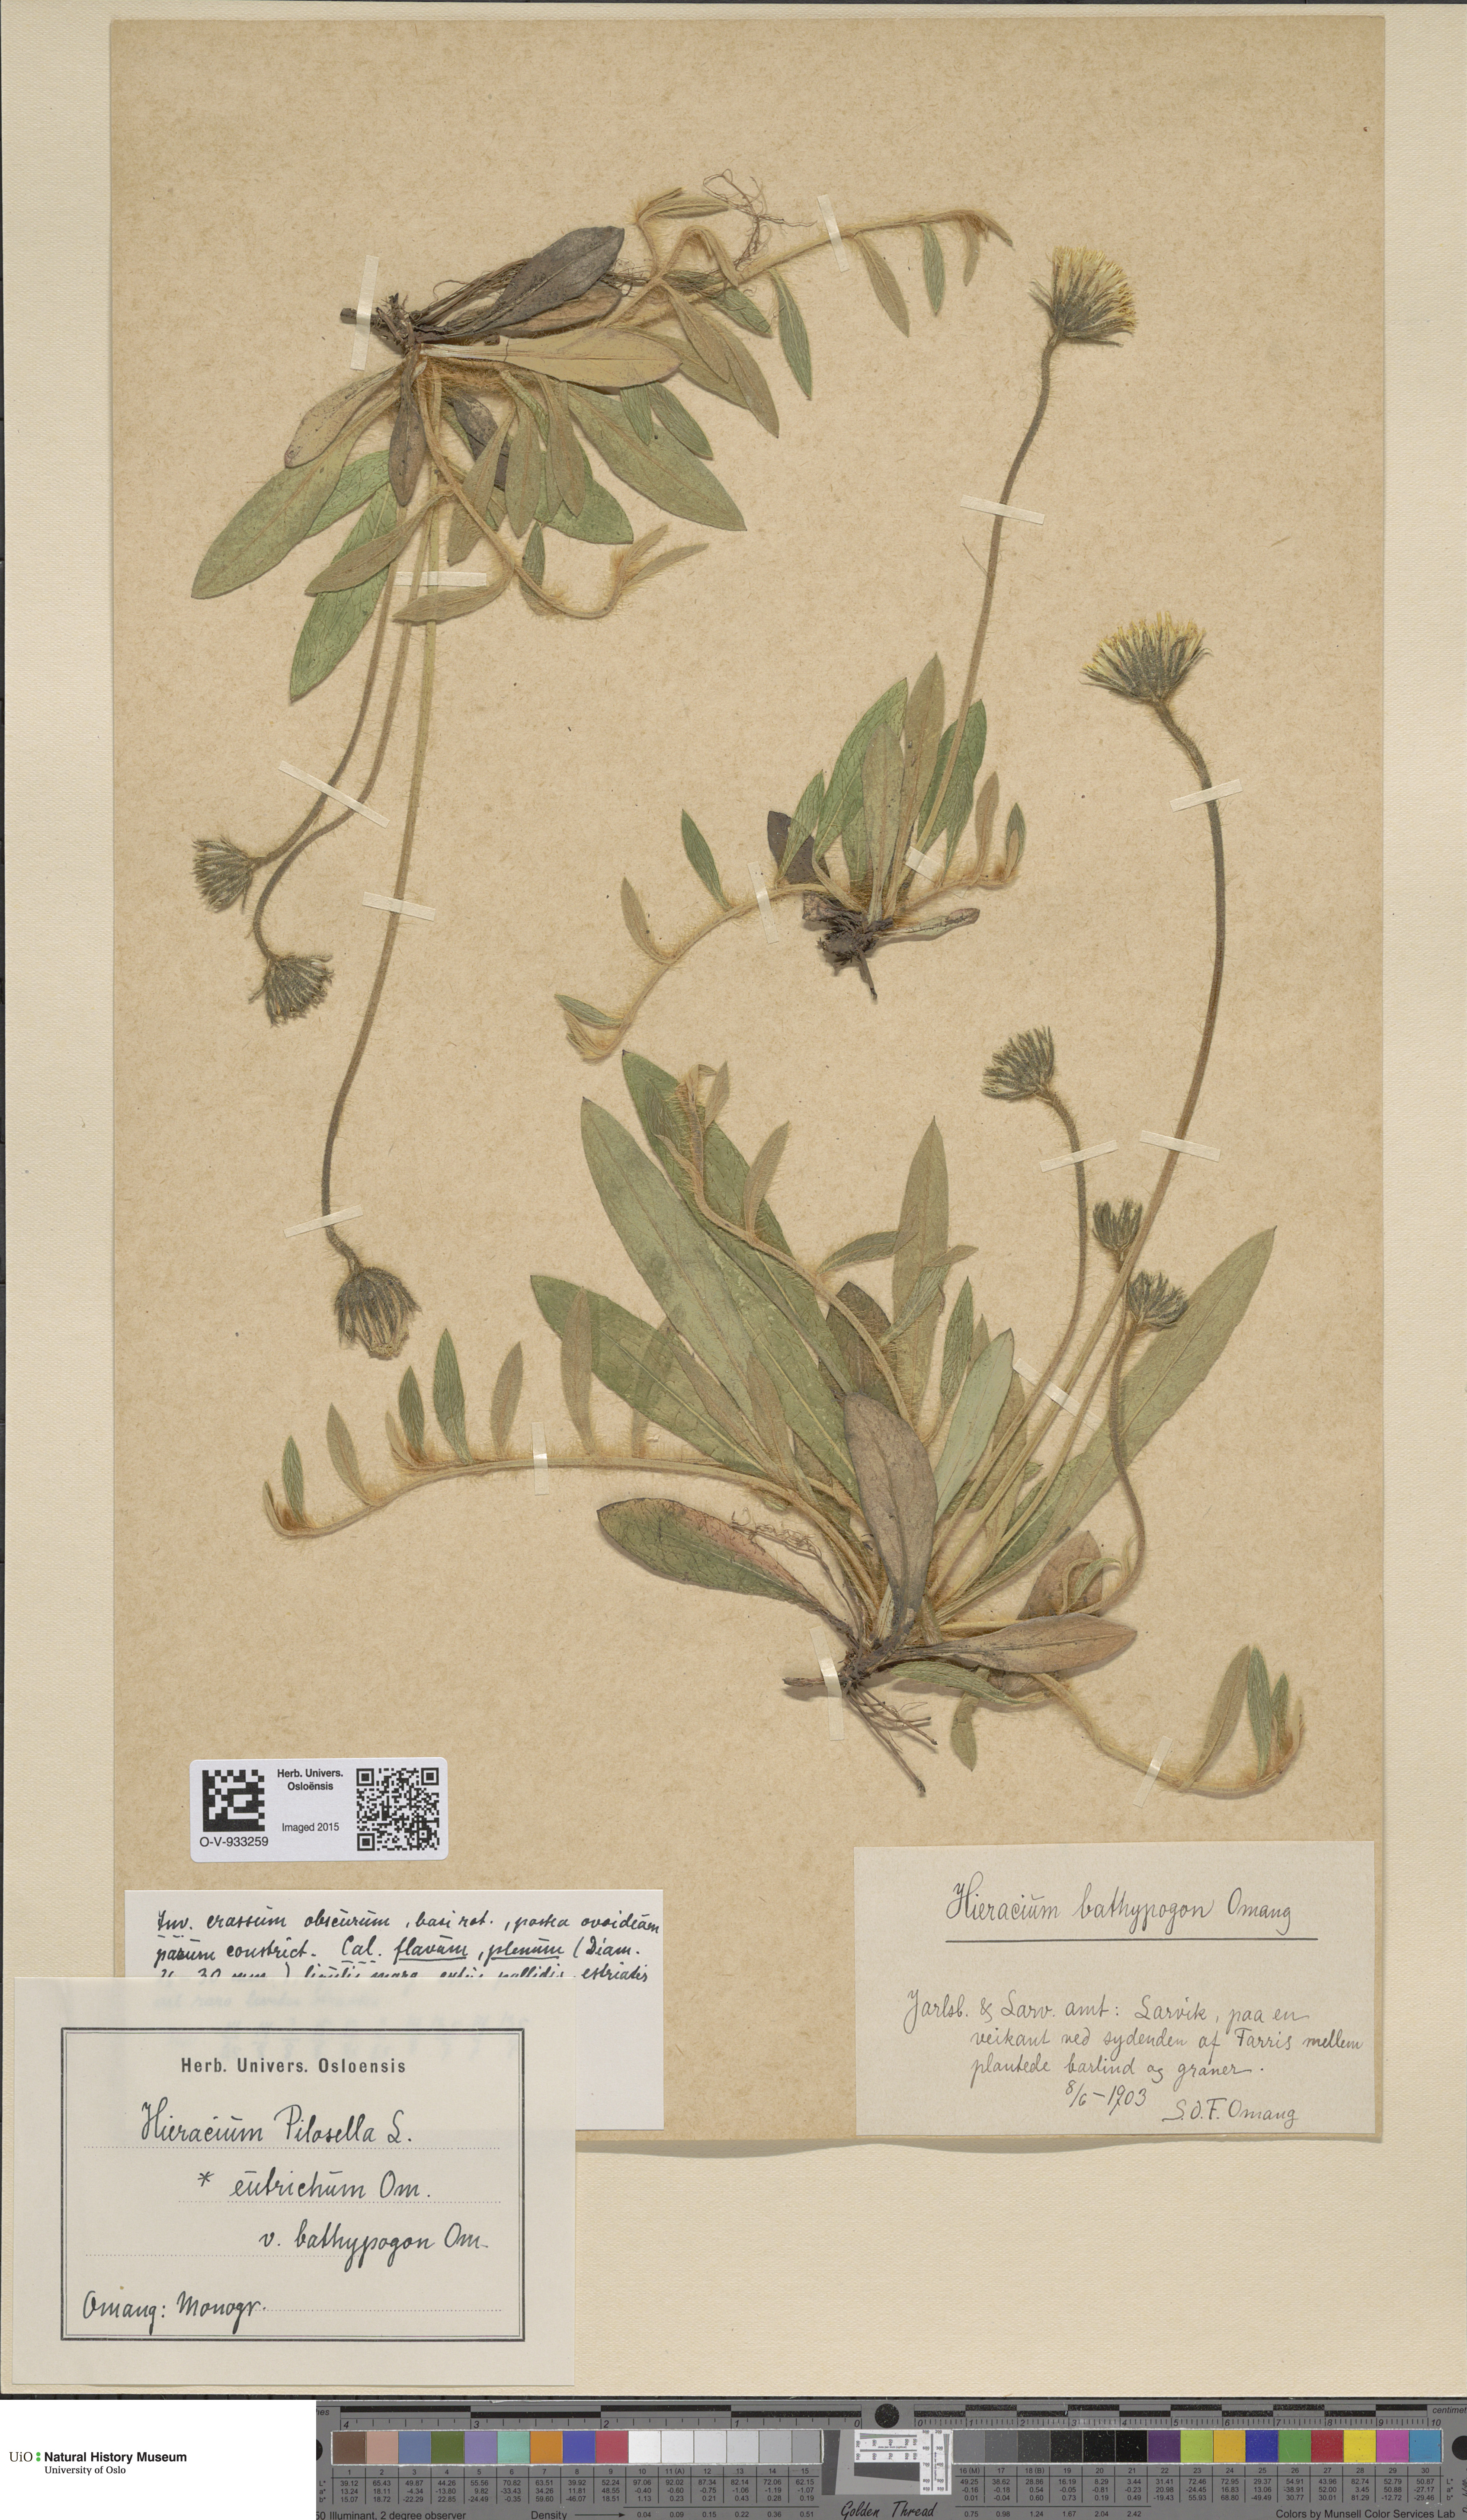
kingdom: Plantae
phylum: Tracheophyta
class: Magnoliopsida
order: Asterales
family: Asteraceae
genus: Pilosella
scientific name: Pilosella officinarum
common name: Mouse-ear hawkweed
